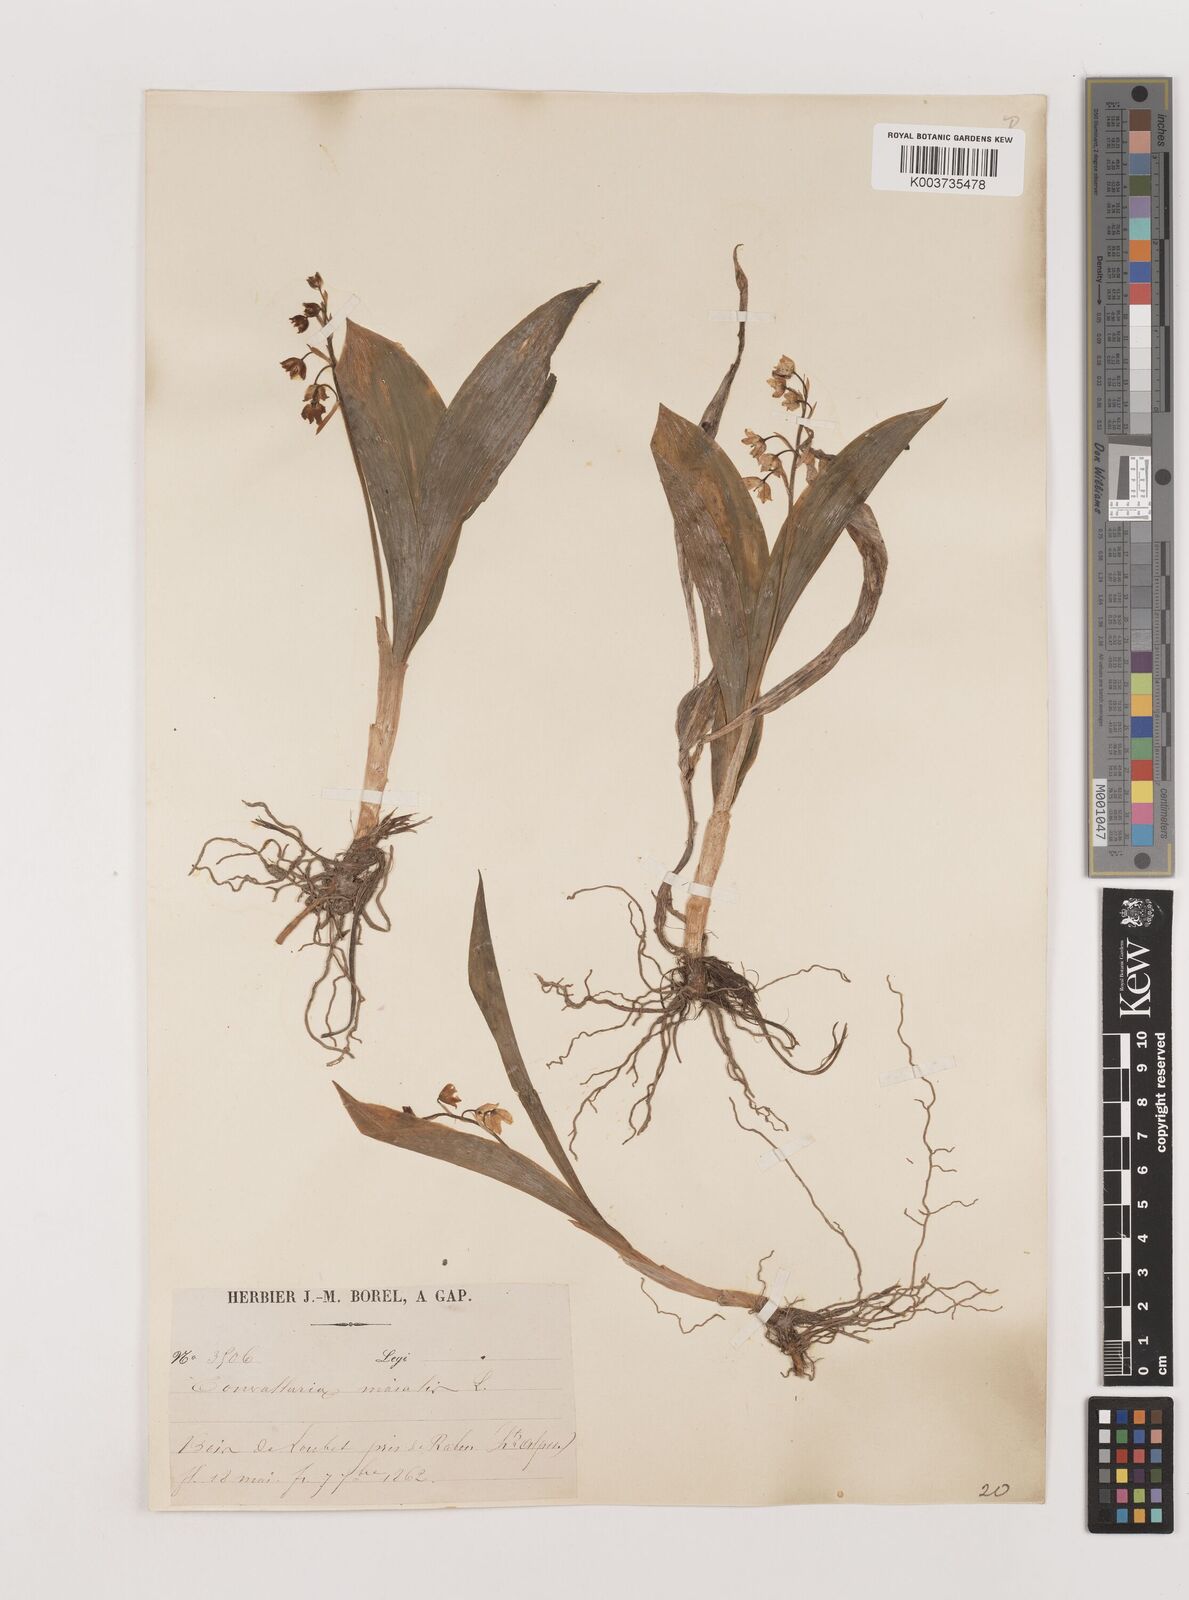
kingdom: Plantae
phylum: Tracheophyta
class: Liliopsida
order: Asparagales
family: Asparagaceae
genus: Convallaria
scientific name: Convallaria majalis
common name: Lily-of-the-valley
